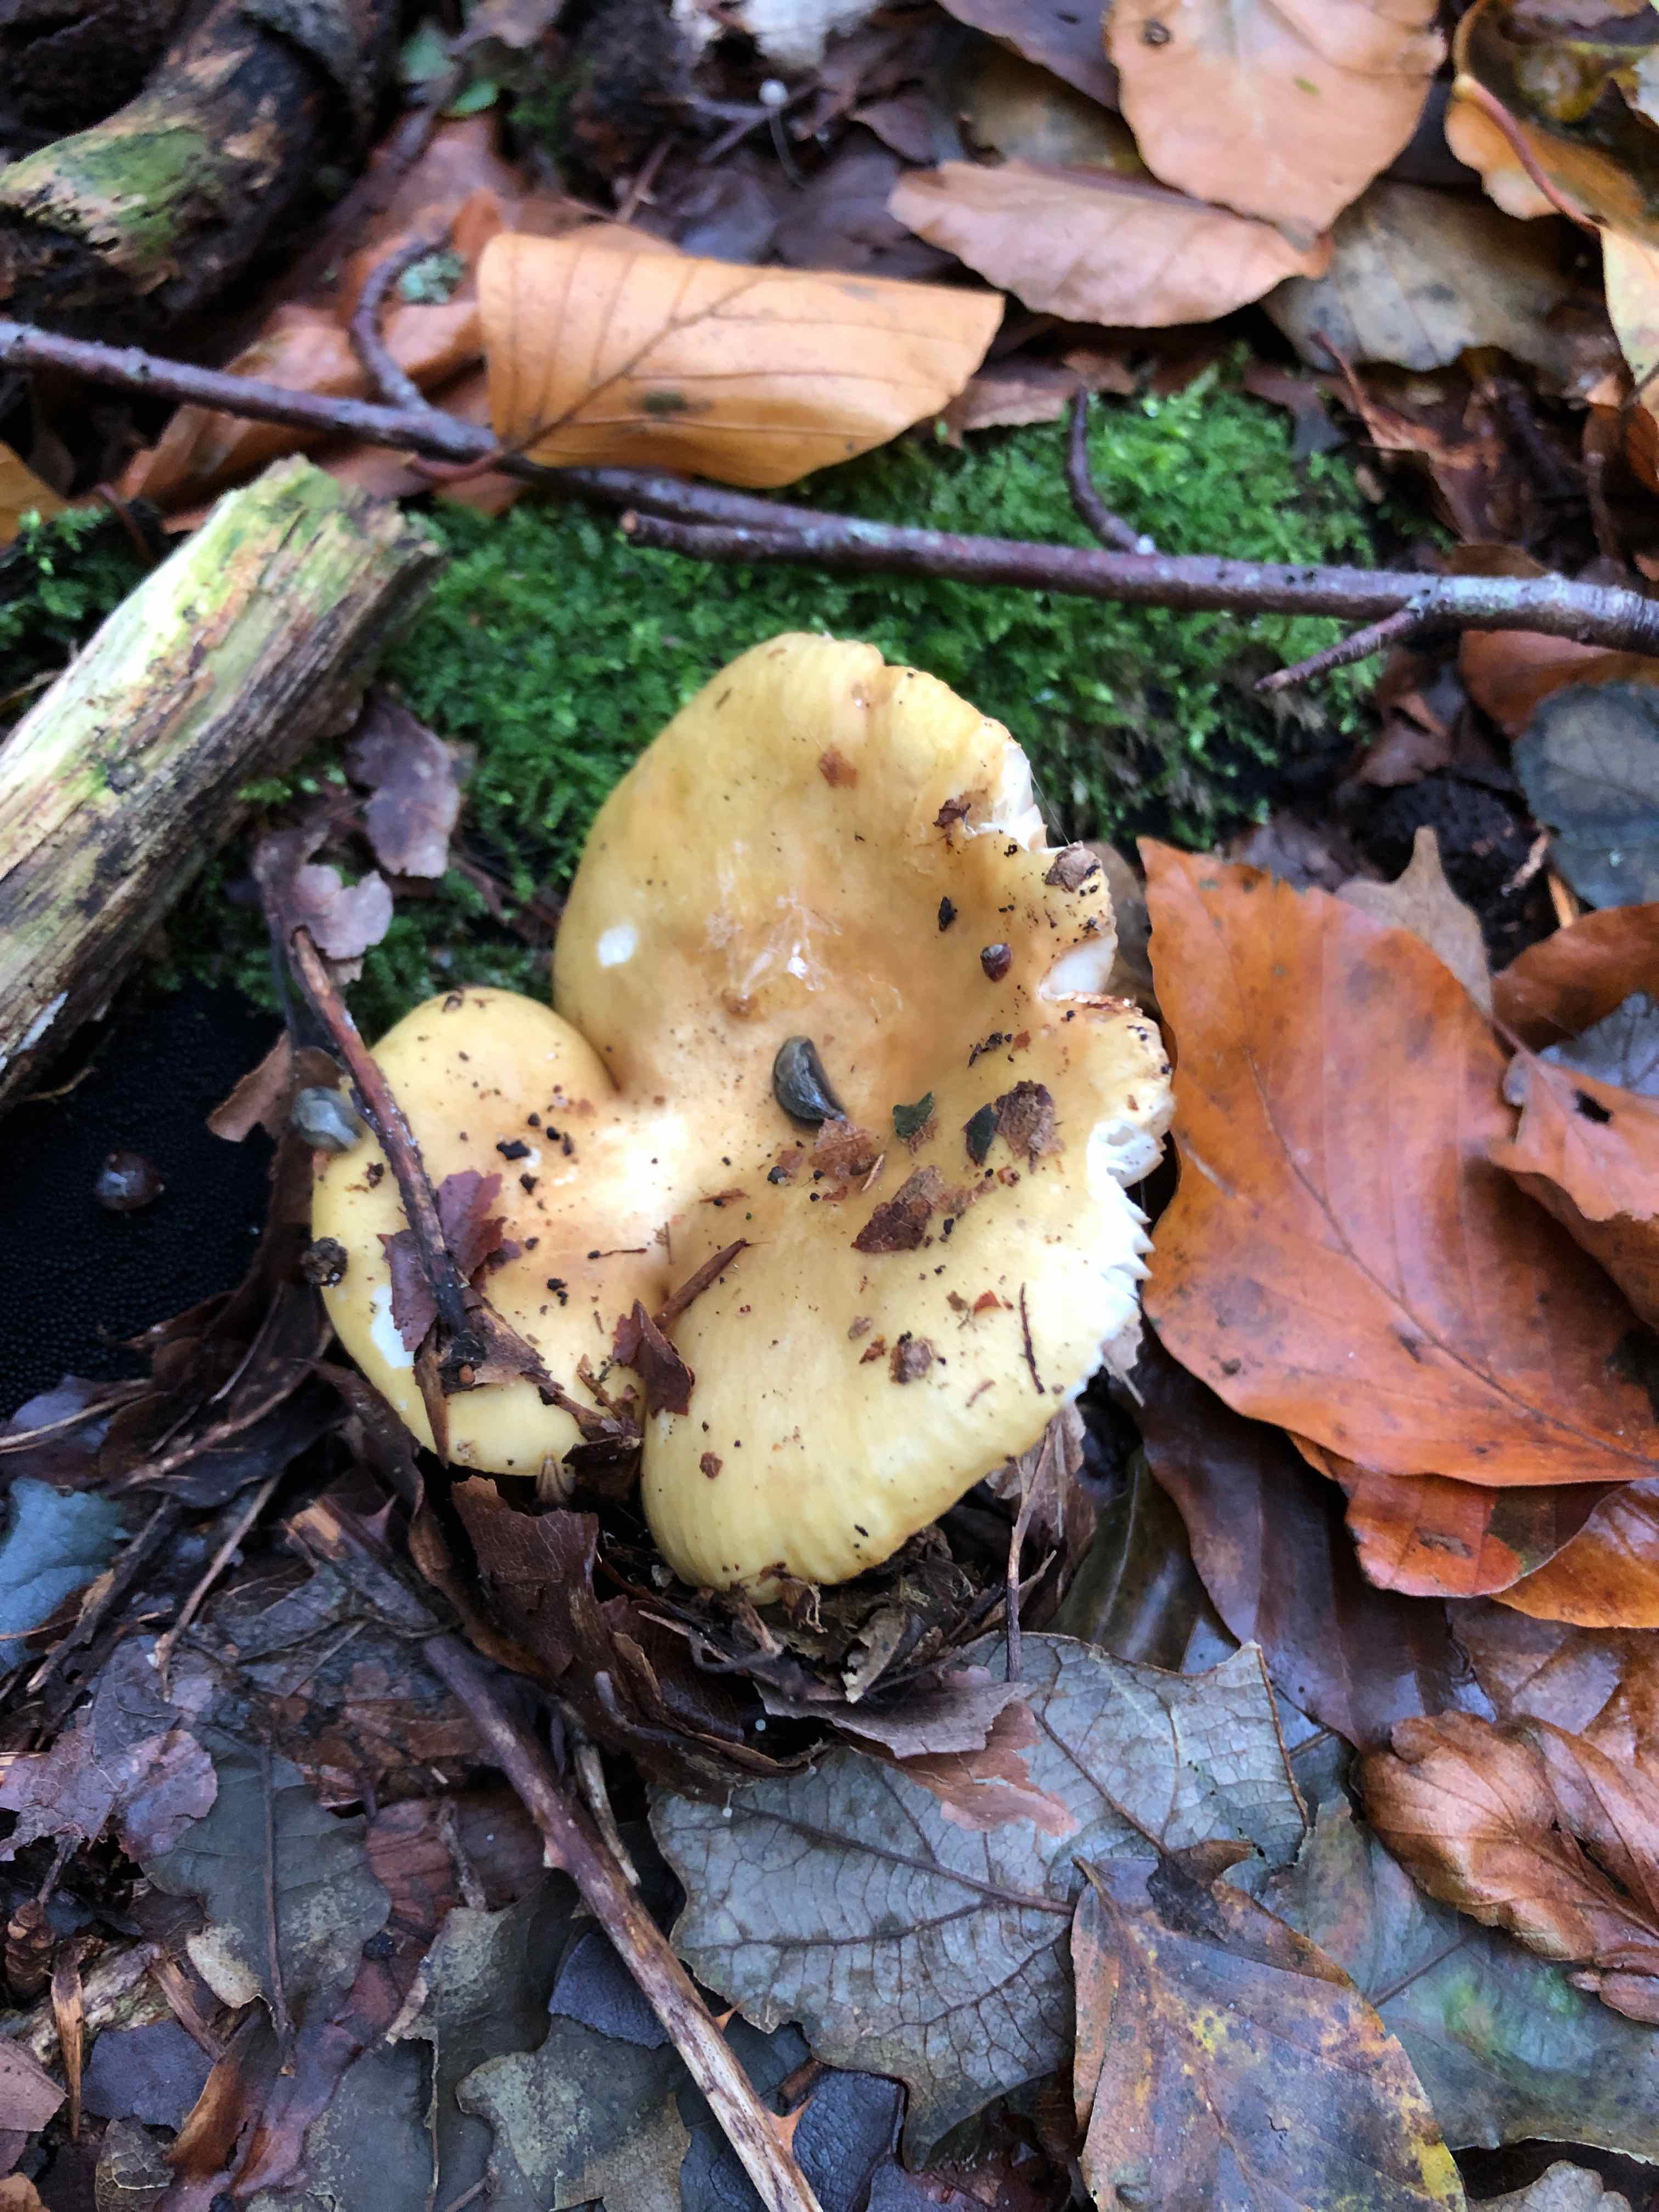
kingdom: Fungi
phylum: Basidiomycota
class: Agaricomycetes
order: Russulales
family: Russulaceae
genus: Russula
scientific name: Russula
